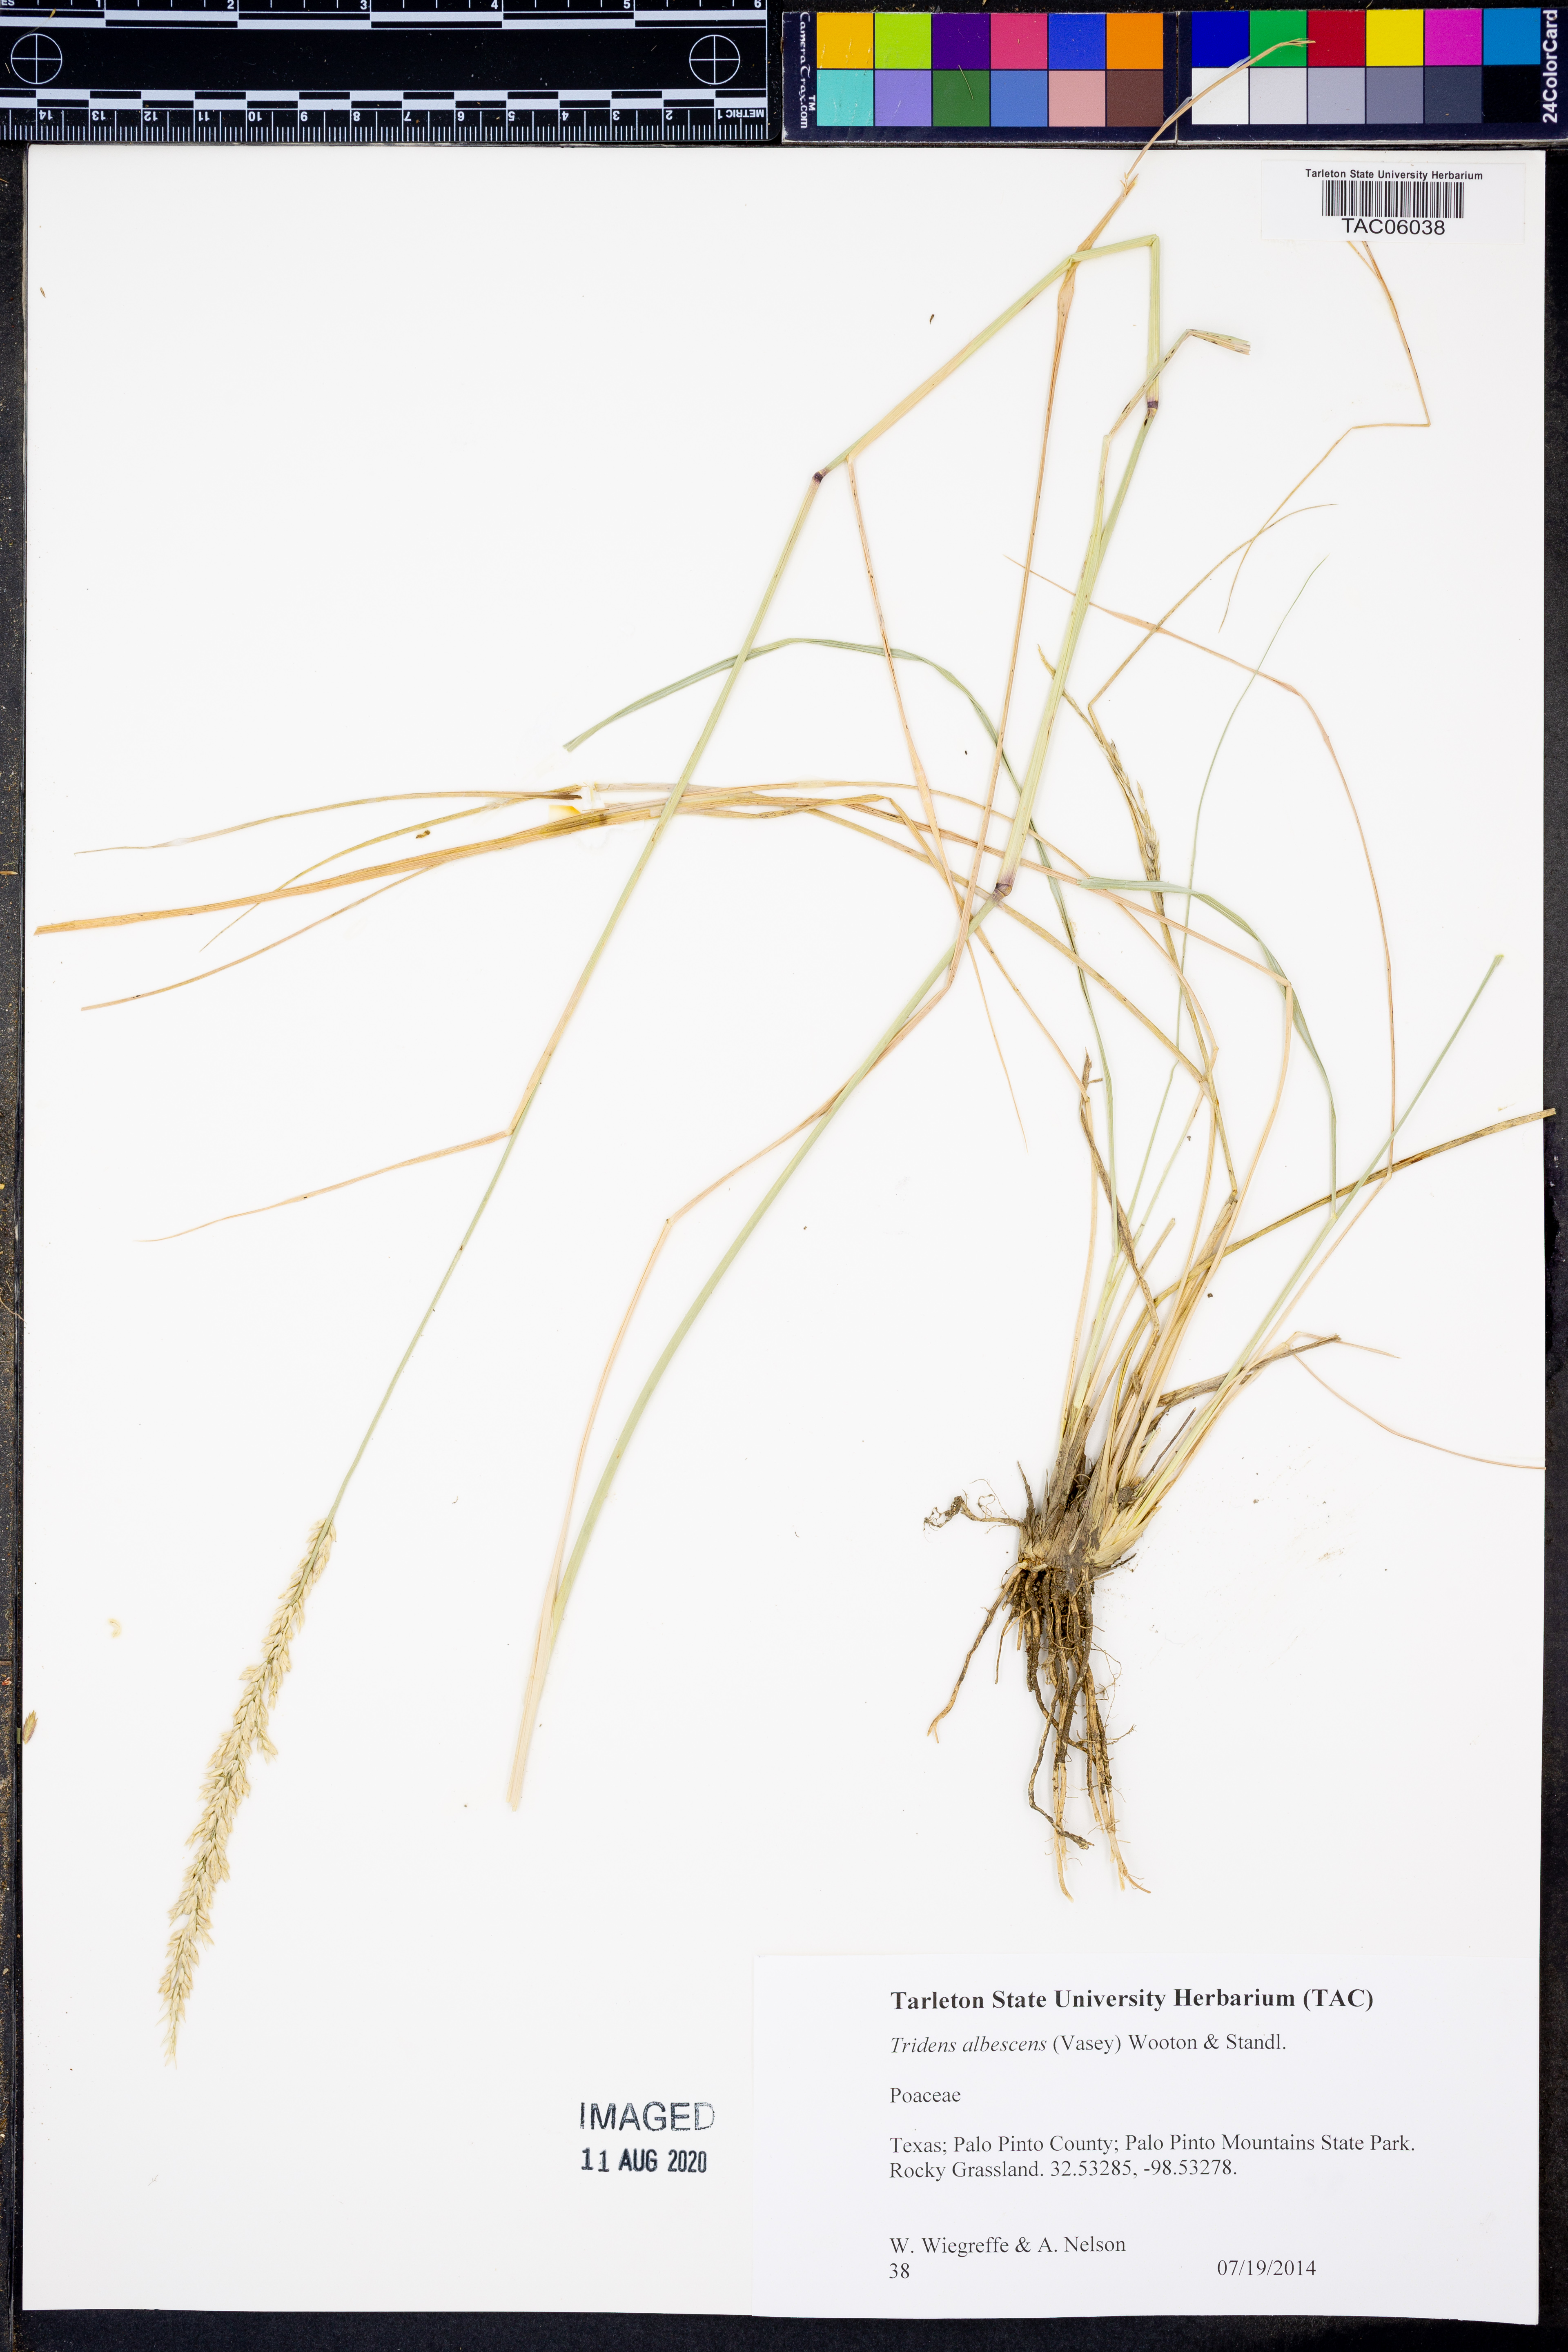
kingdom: Plantae
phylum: Tracheophyta
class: Liliopsida
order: Poales
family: Poaceae
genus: Tridens
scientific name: Tridens albescens
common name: White tridens
